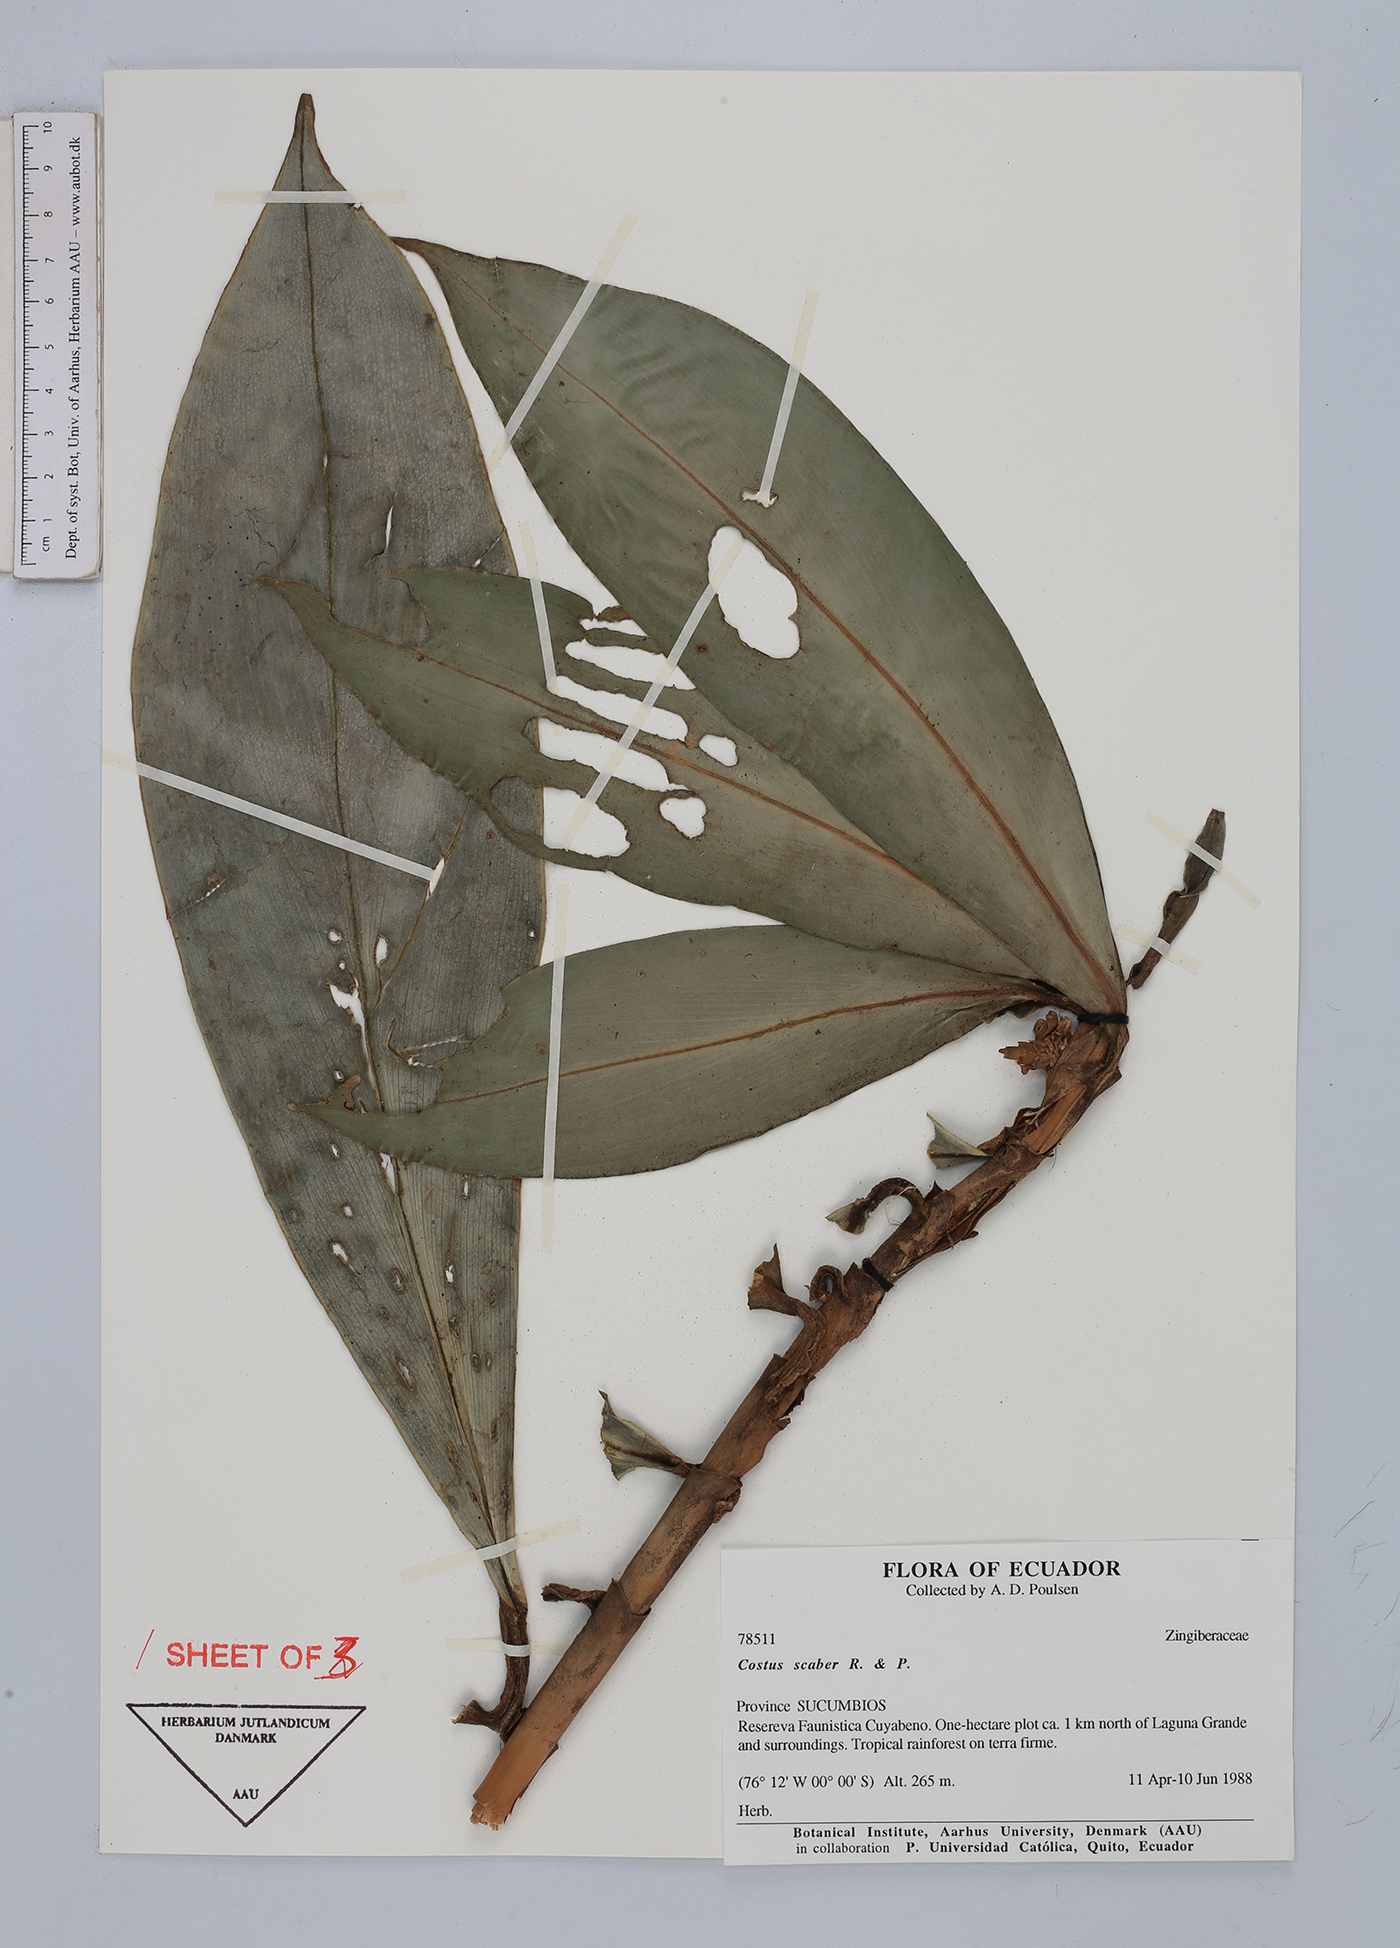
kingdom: Plantae
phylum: Tracheophyta
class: Liliopsida
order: Zingiberales
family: Costaceae
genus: Costus
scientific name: Costus scaber
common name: Spiral head ginger
